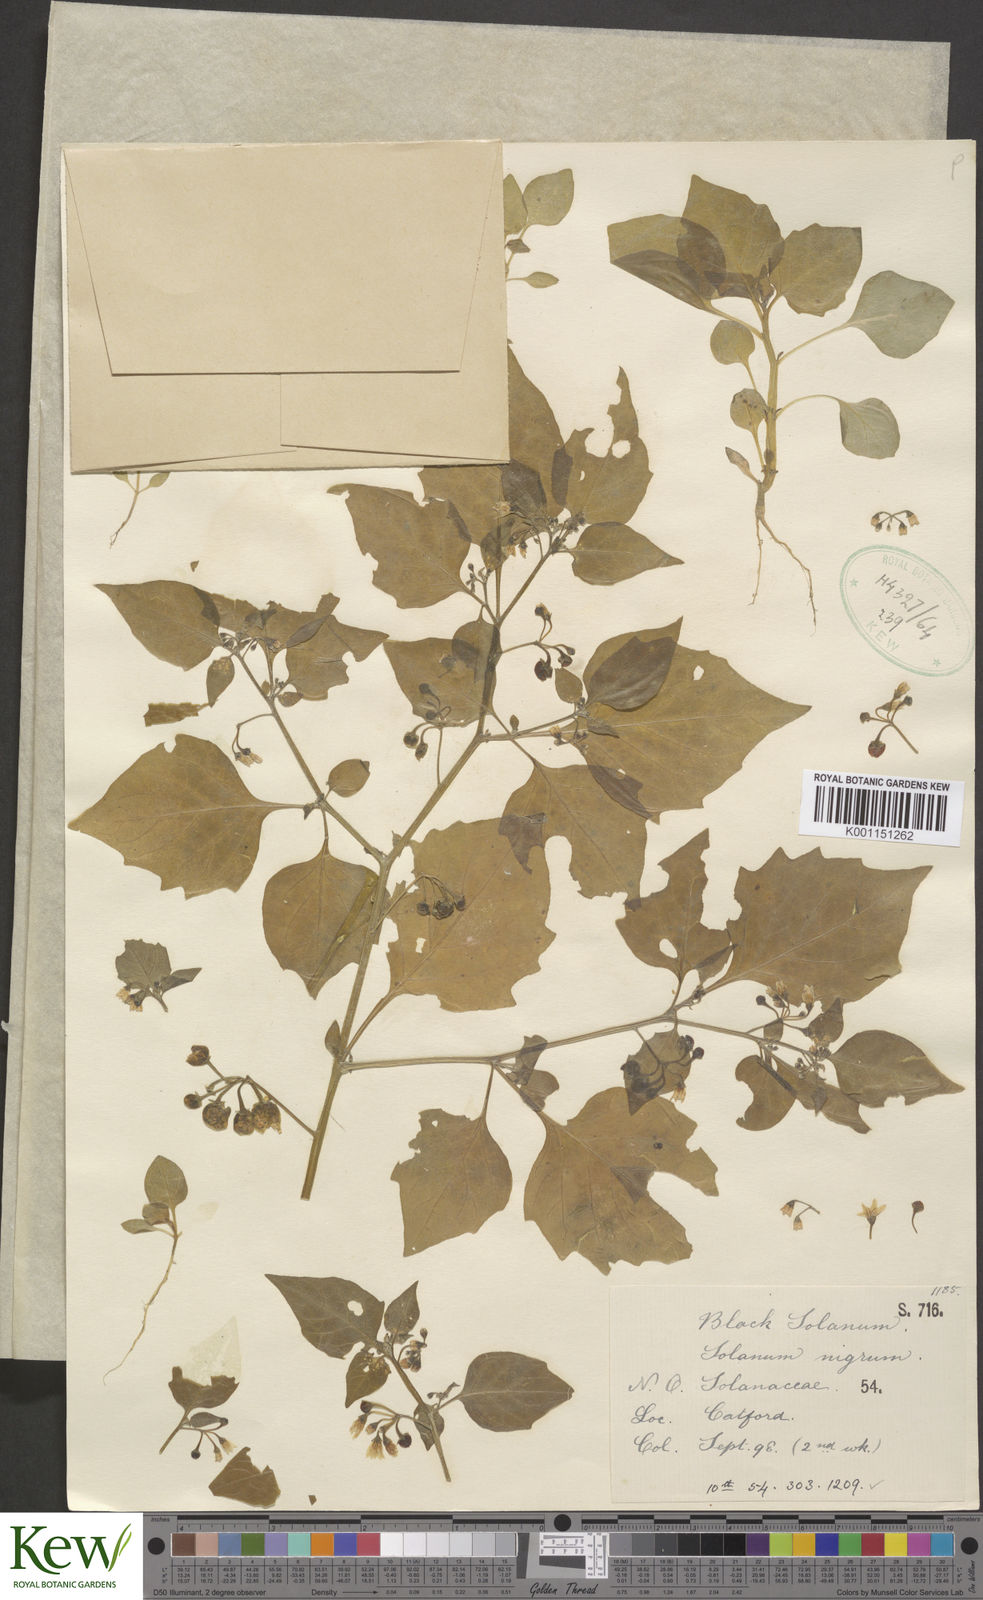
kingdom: Plantae
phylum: Tracheophyta
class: Magnoliopsida
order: Solanales
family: Solanaceae
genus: Solanum
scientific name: Solanum nigrum
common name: Black nightshade
